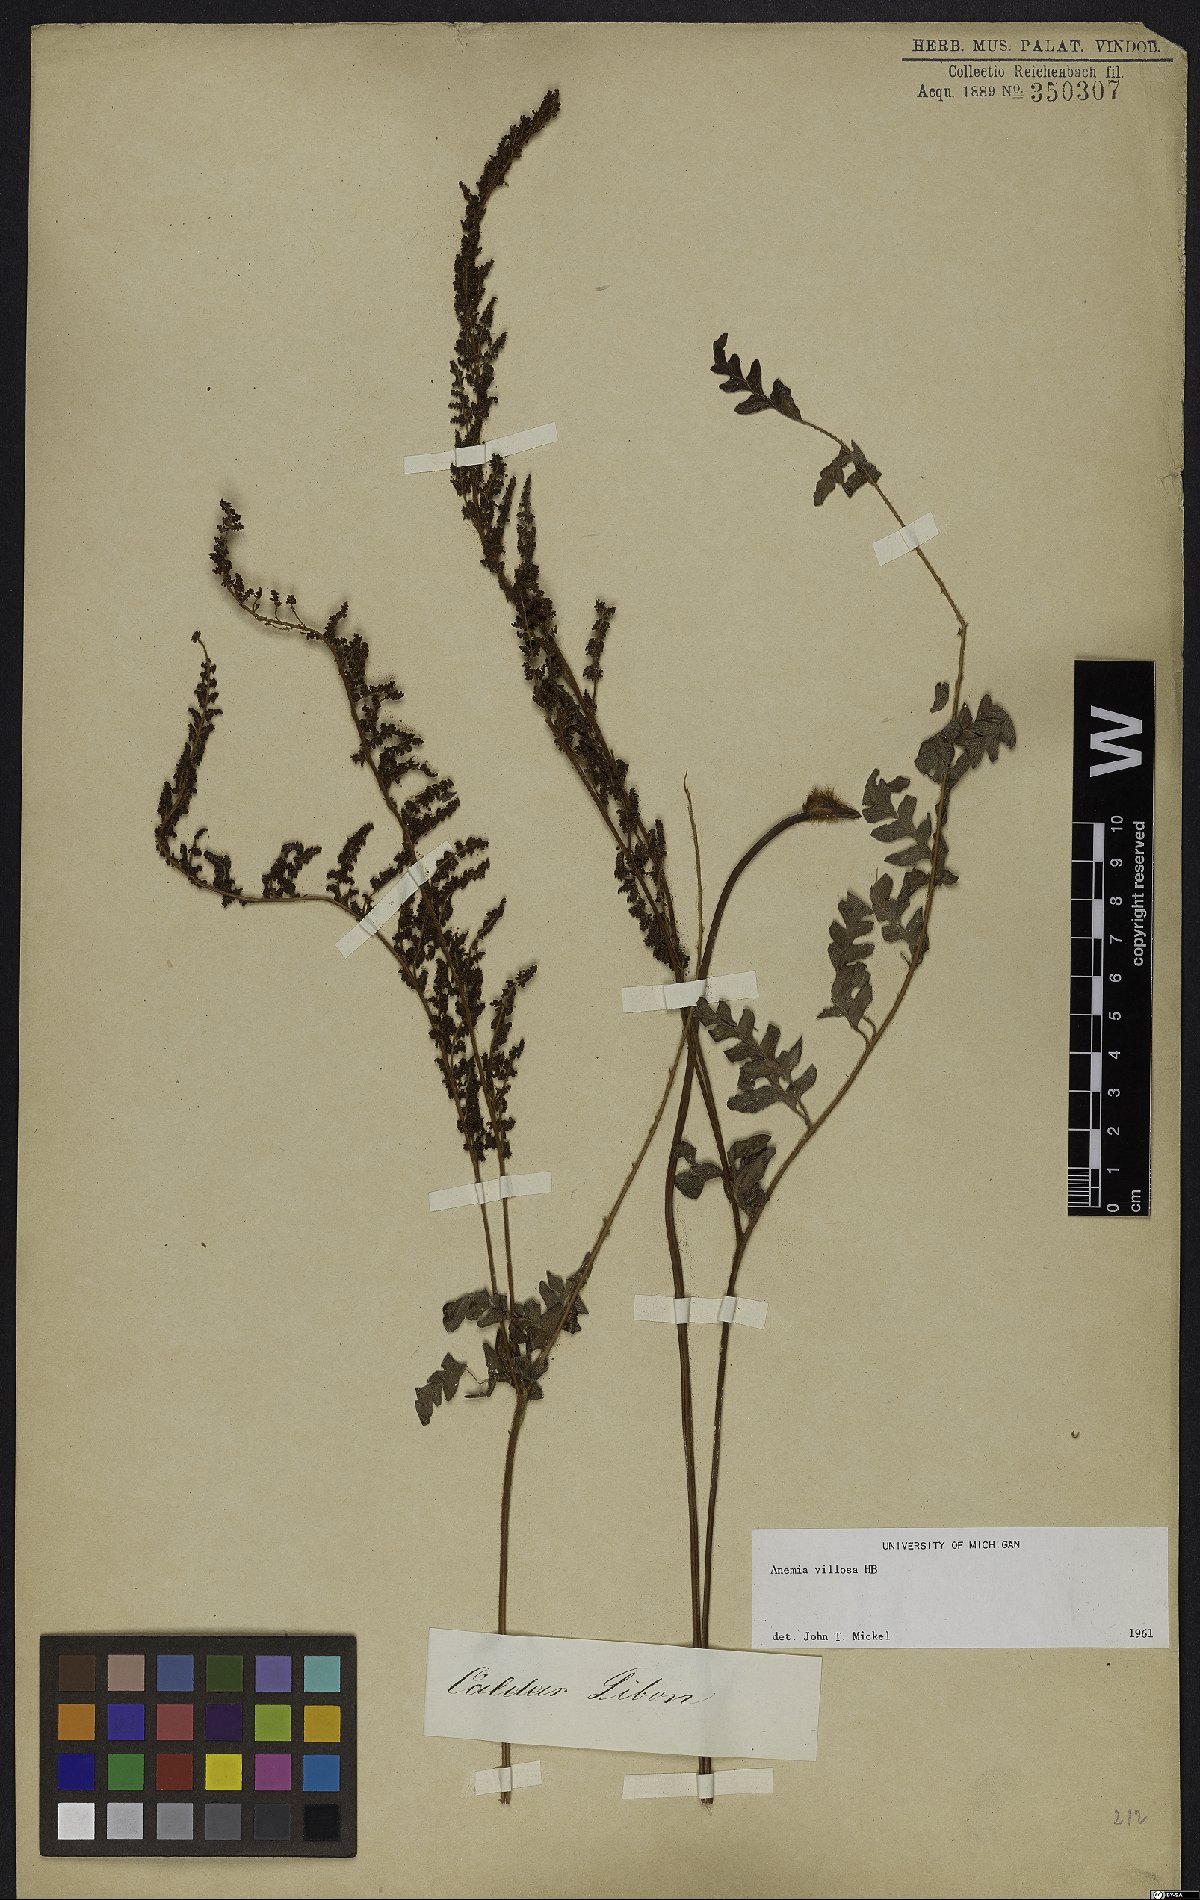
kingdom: Plantae
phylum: Tracheophyta
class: Polypodiopsida
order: Schizaeales
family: Anemiaceae
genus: Anemia
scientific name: Anemia villosa
